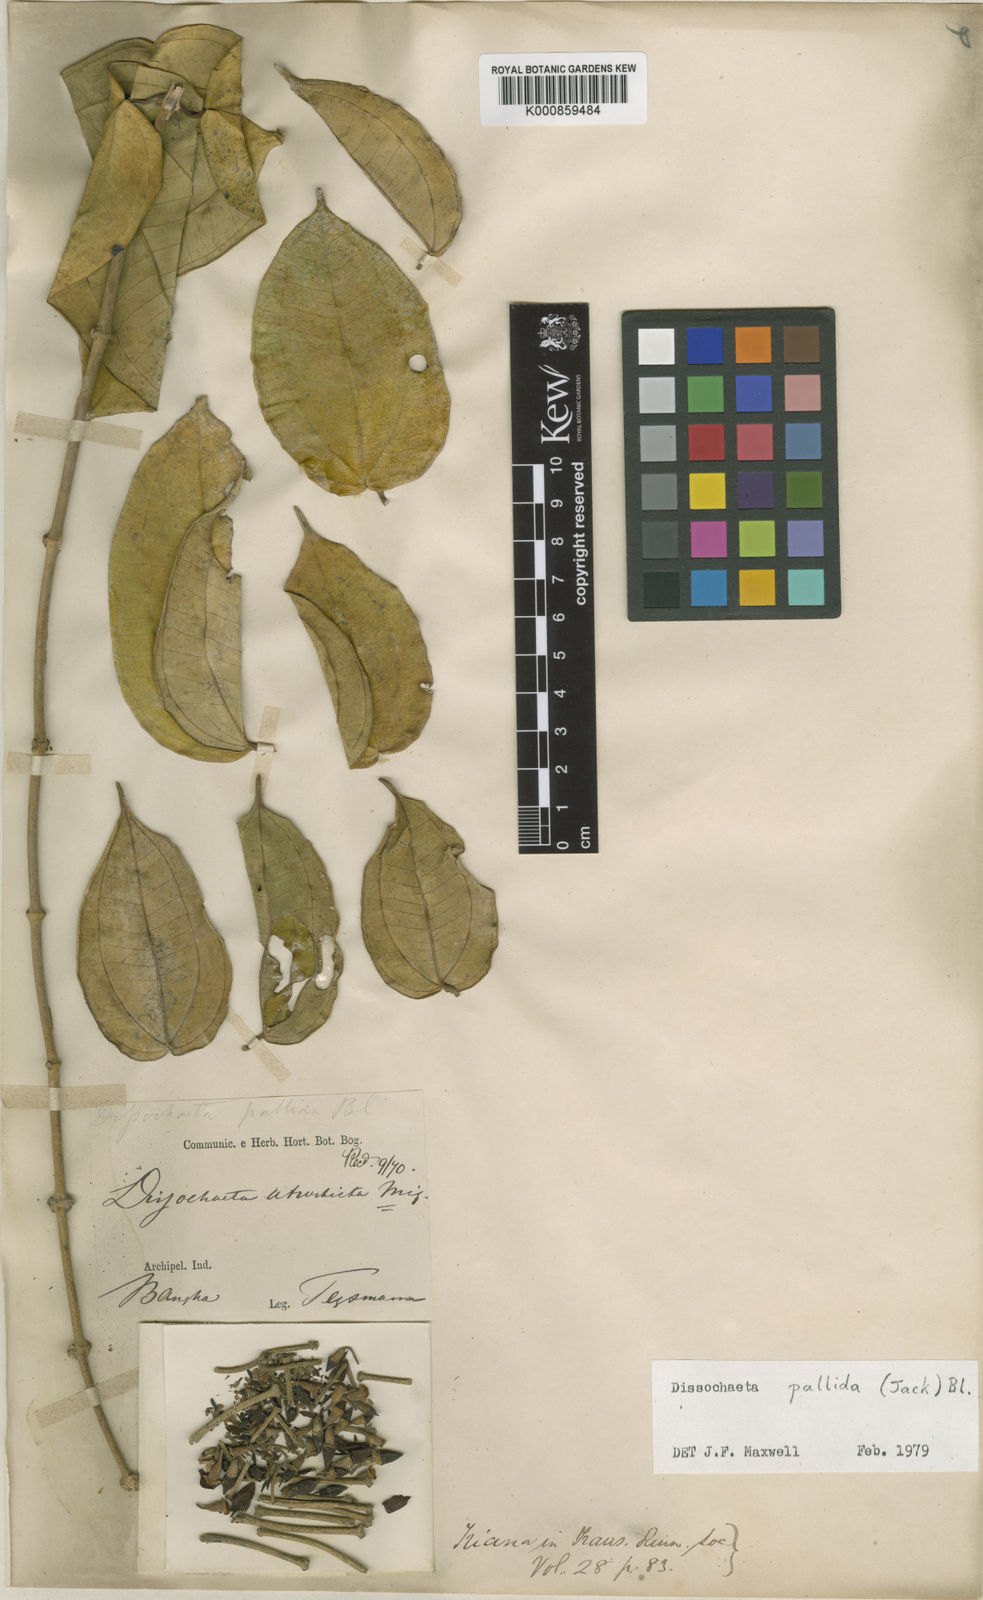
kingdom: Plantae
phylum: Tracheophyta
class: Magnoliopsida
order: Myrtales
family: Melastomataceae
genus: Dissochaeta
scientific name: Dissochaeta pallida
